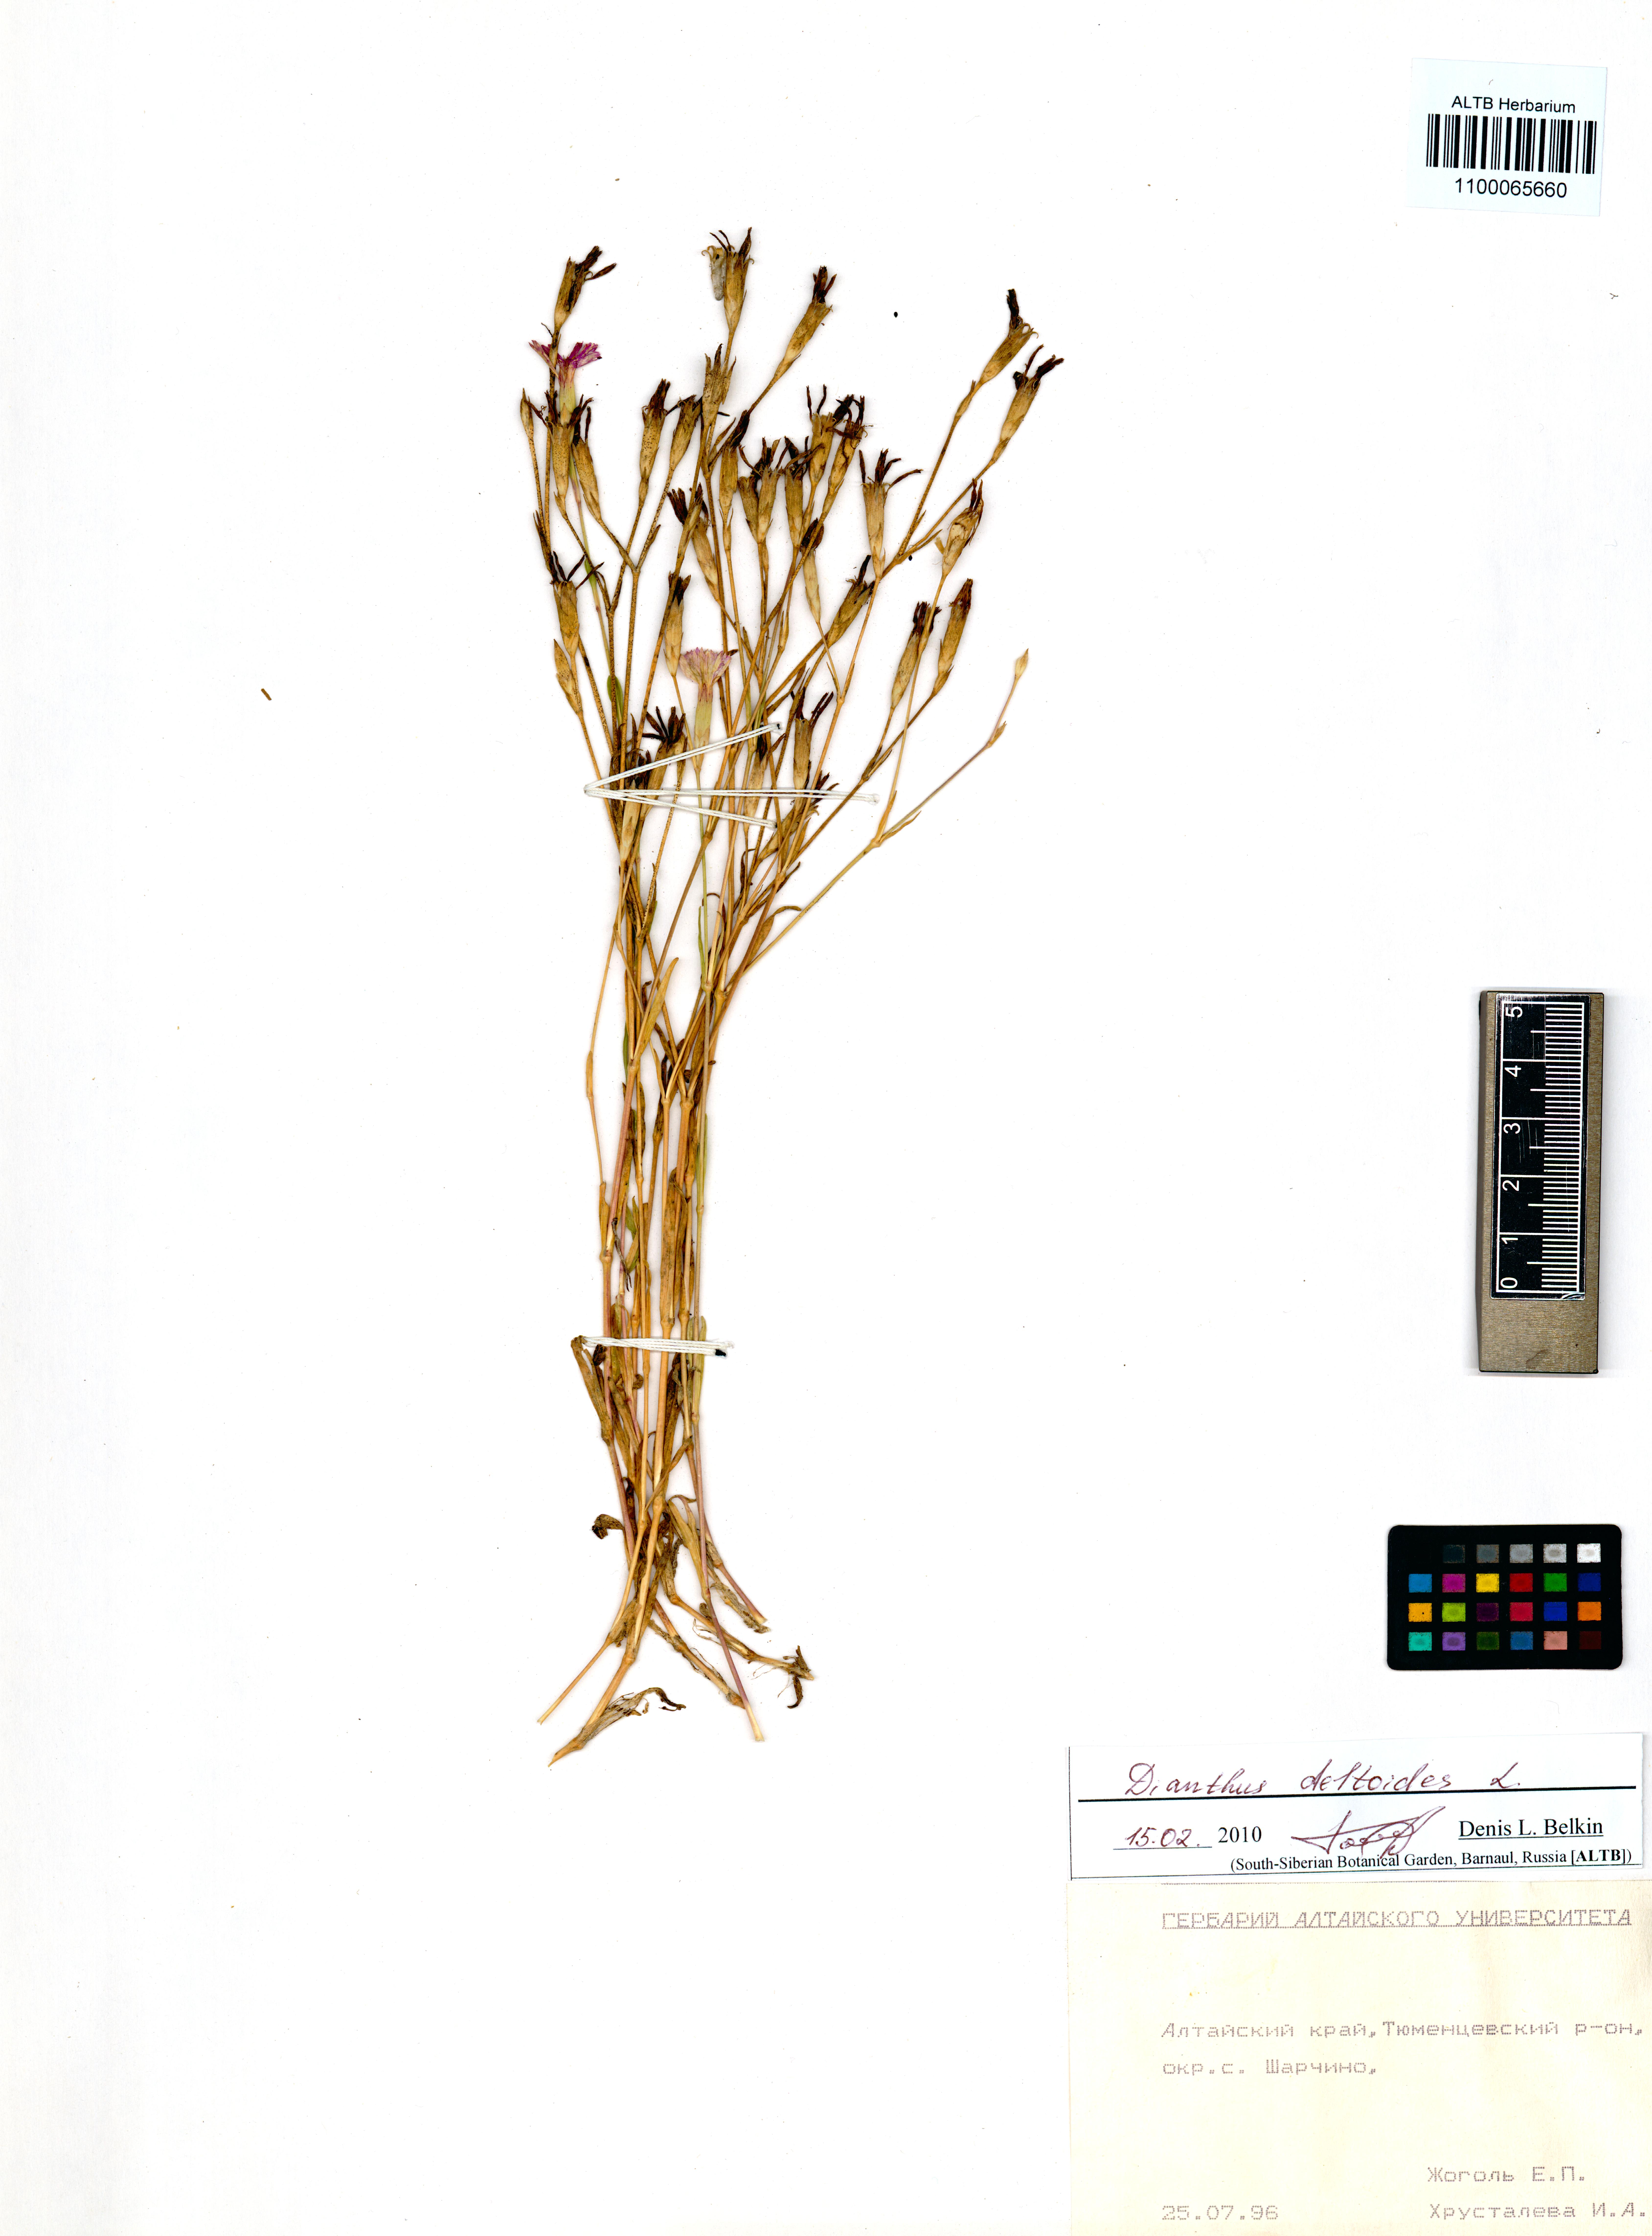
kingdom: Plantae
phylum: Tracheophyta
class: Magnoliopsida
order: Caryophyllales
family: Caryophyllaceae
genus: Dianthus
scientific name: Dianthus deltoides
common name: Maiden pink
